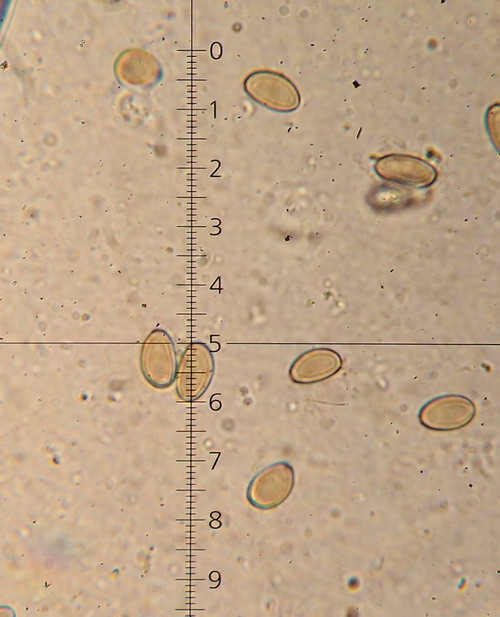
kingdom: Fungi
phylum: Basidiomycota
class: Agaricomycetes
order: Agaricales
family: Strophariaceae
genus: Agrocybe
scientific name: Agrocybe arvalis
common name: rodslående agerhat
